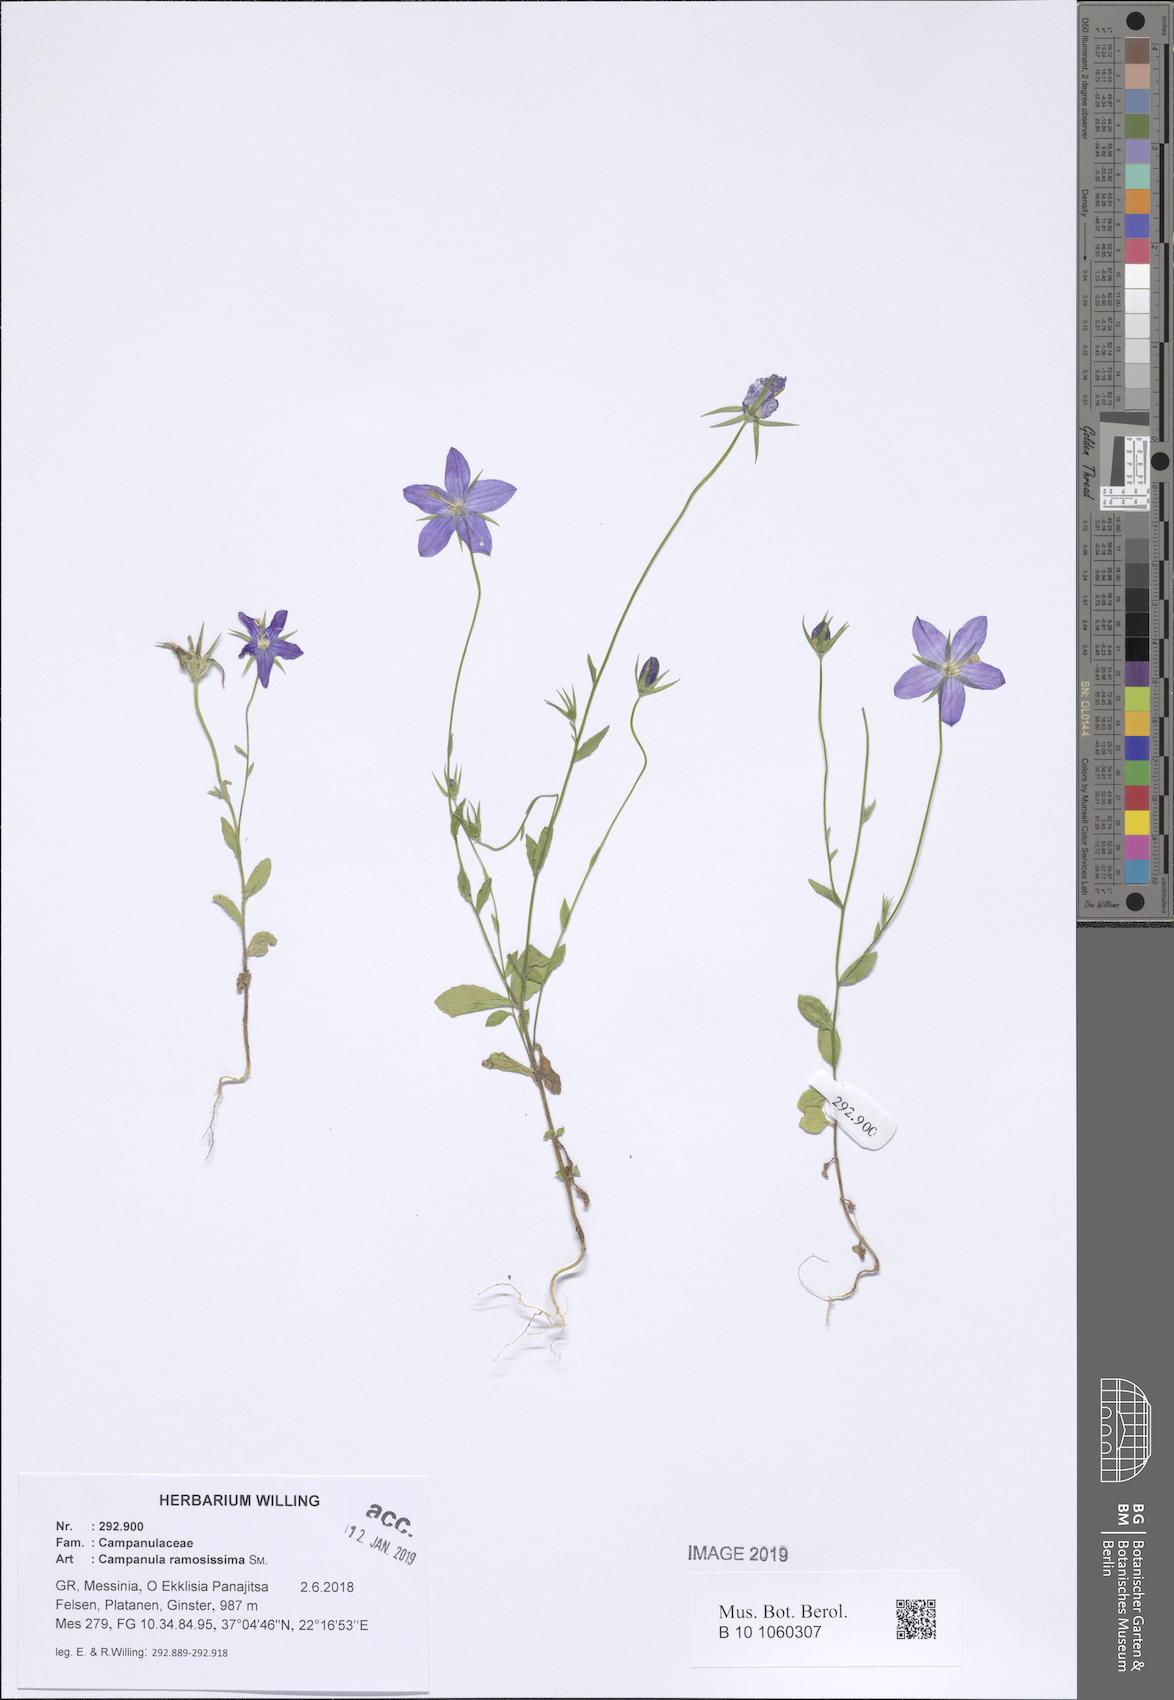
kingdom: Plantae
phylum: Tracheophyta
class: Magnoliopsida
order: Asterales
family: Campanulaceae
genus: Campanula
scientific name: Campanula ramosissima
